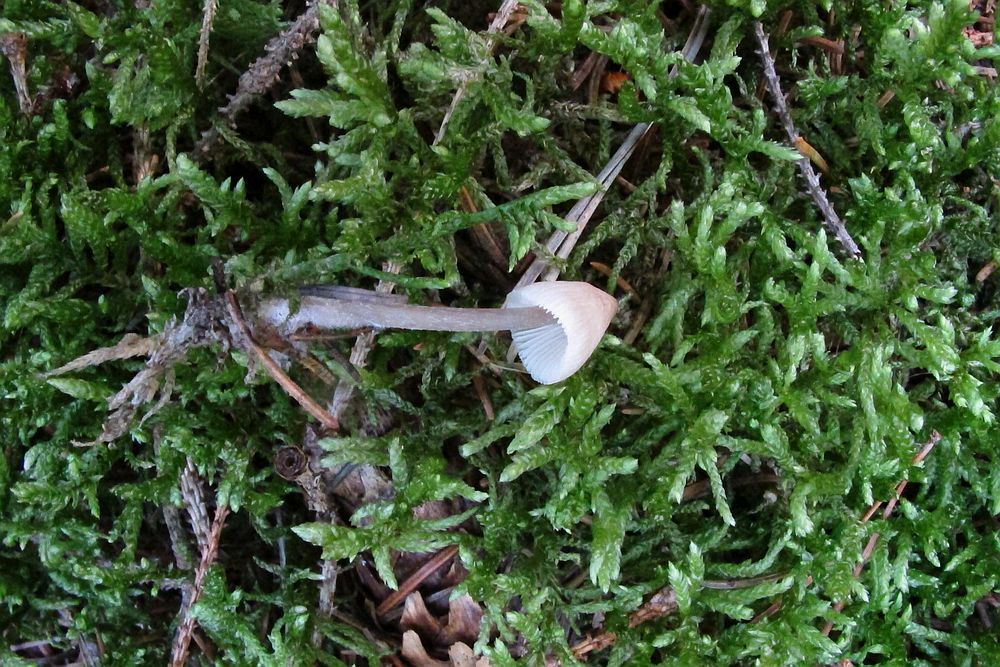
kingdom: Fungi
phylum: Basidiomycota
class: Agaricomycetes
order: Agaricales
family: Mycenaceae
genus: Mycena
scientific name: Mycena zephirus
